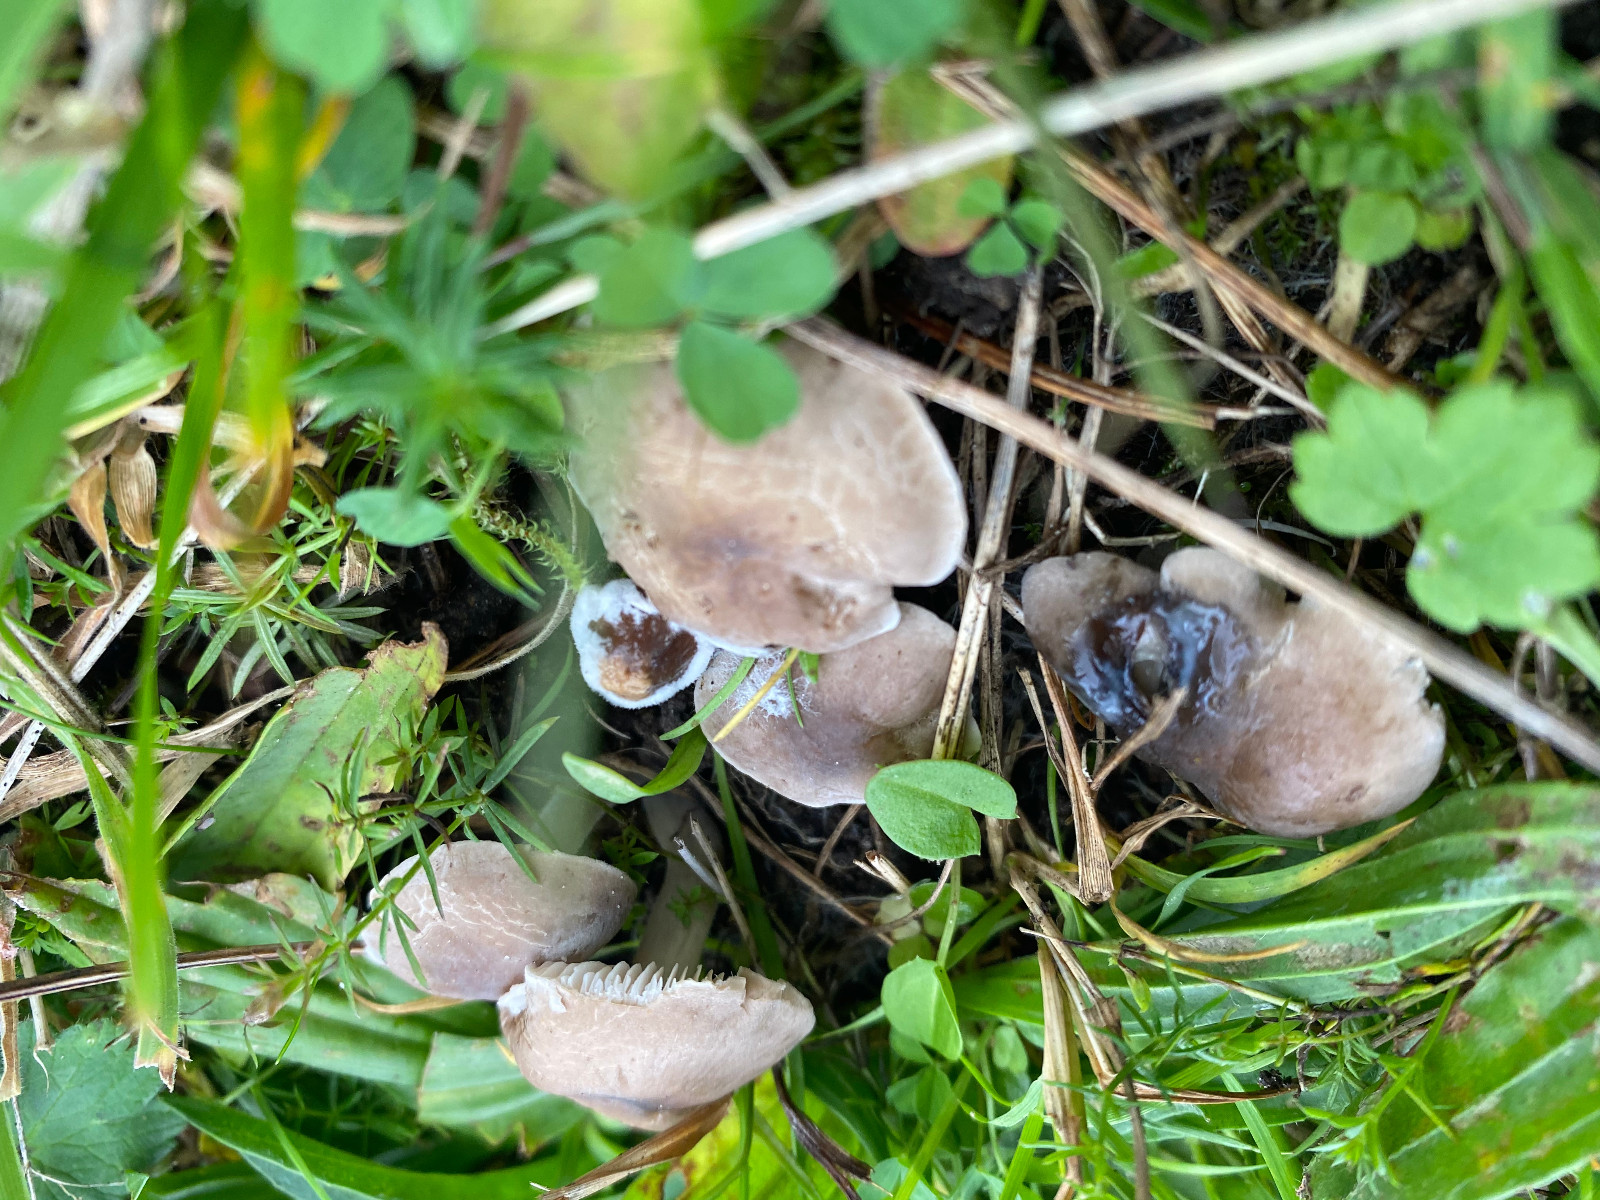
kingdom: Fungi
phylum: Basidiomycota
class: Agaricomycetes
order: Agaricales
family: Tricholomataceae
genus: Dermoloma
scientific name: Dermoloma cuneifolium
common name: eng-nonnehat
